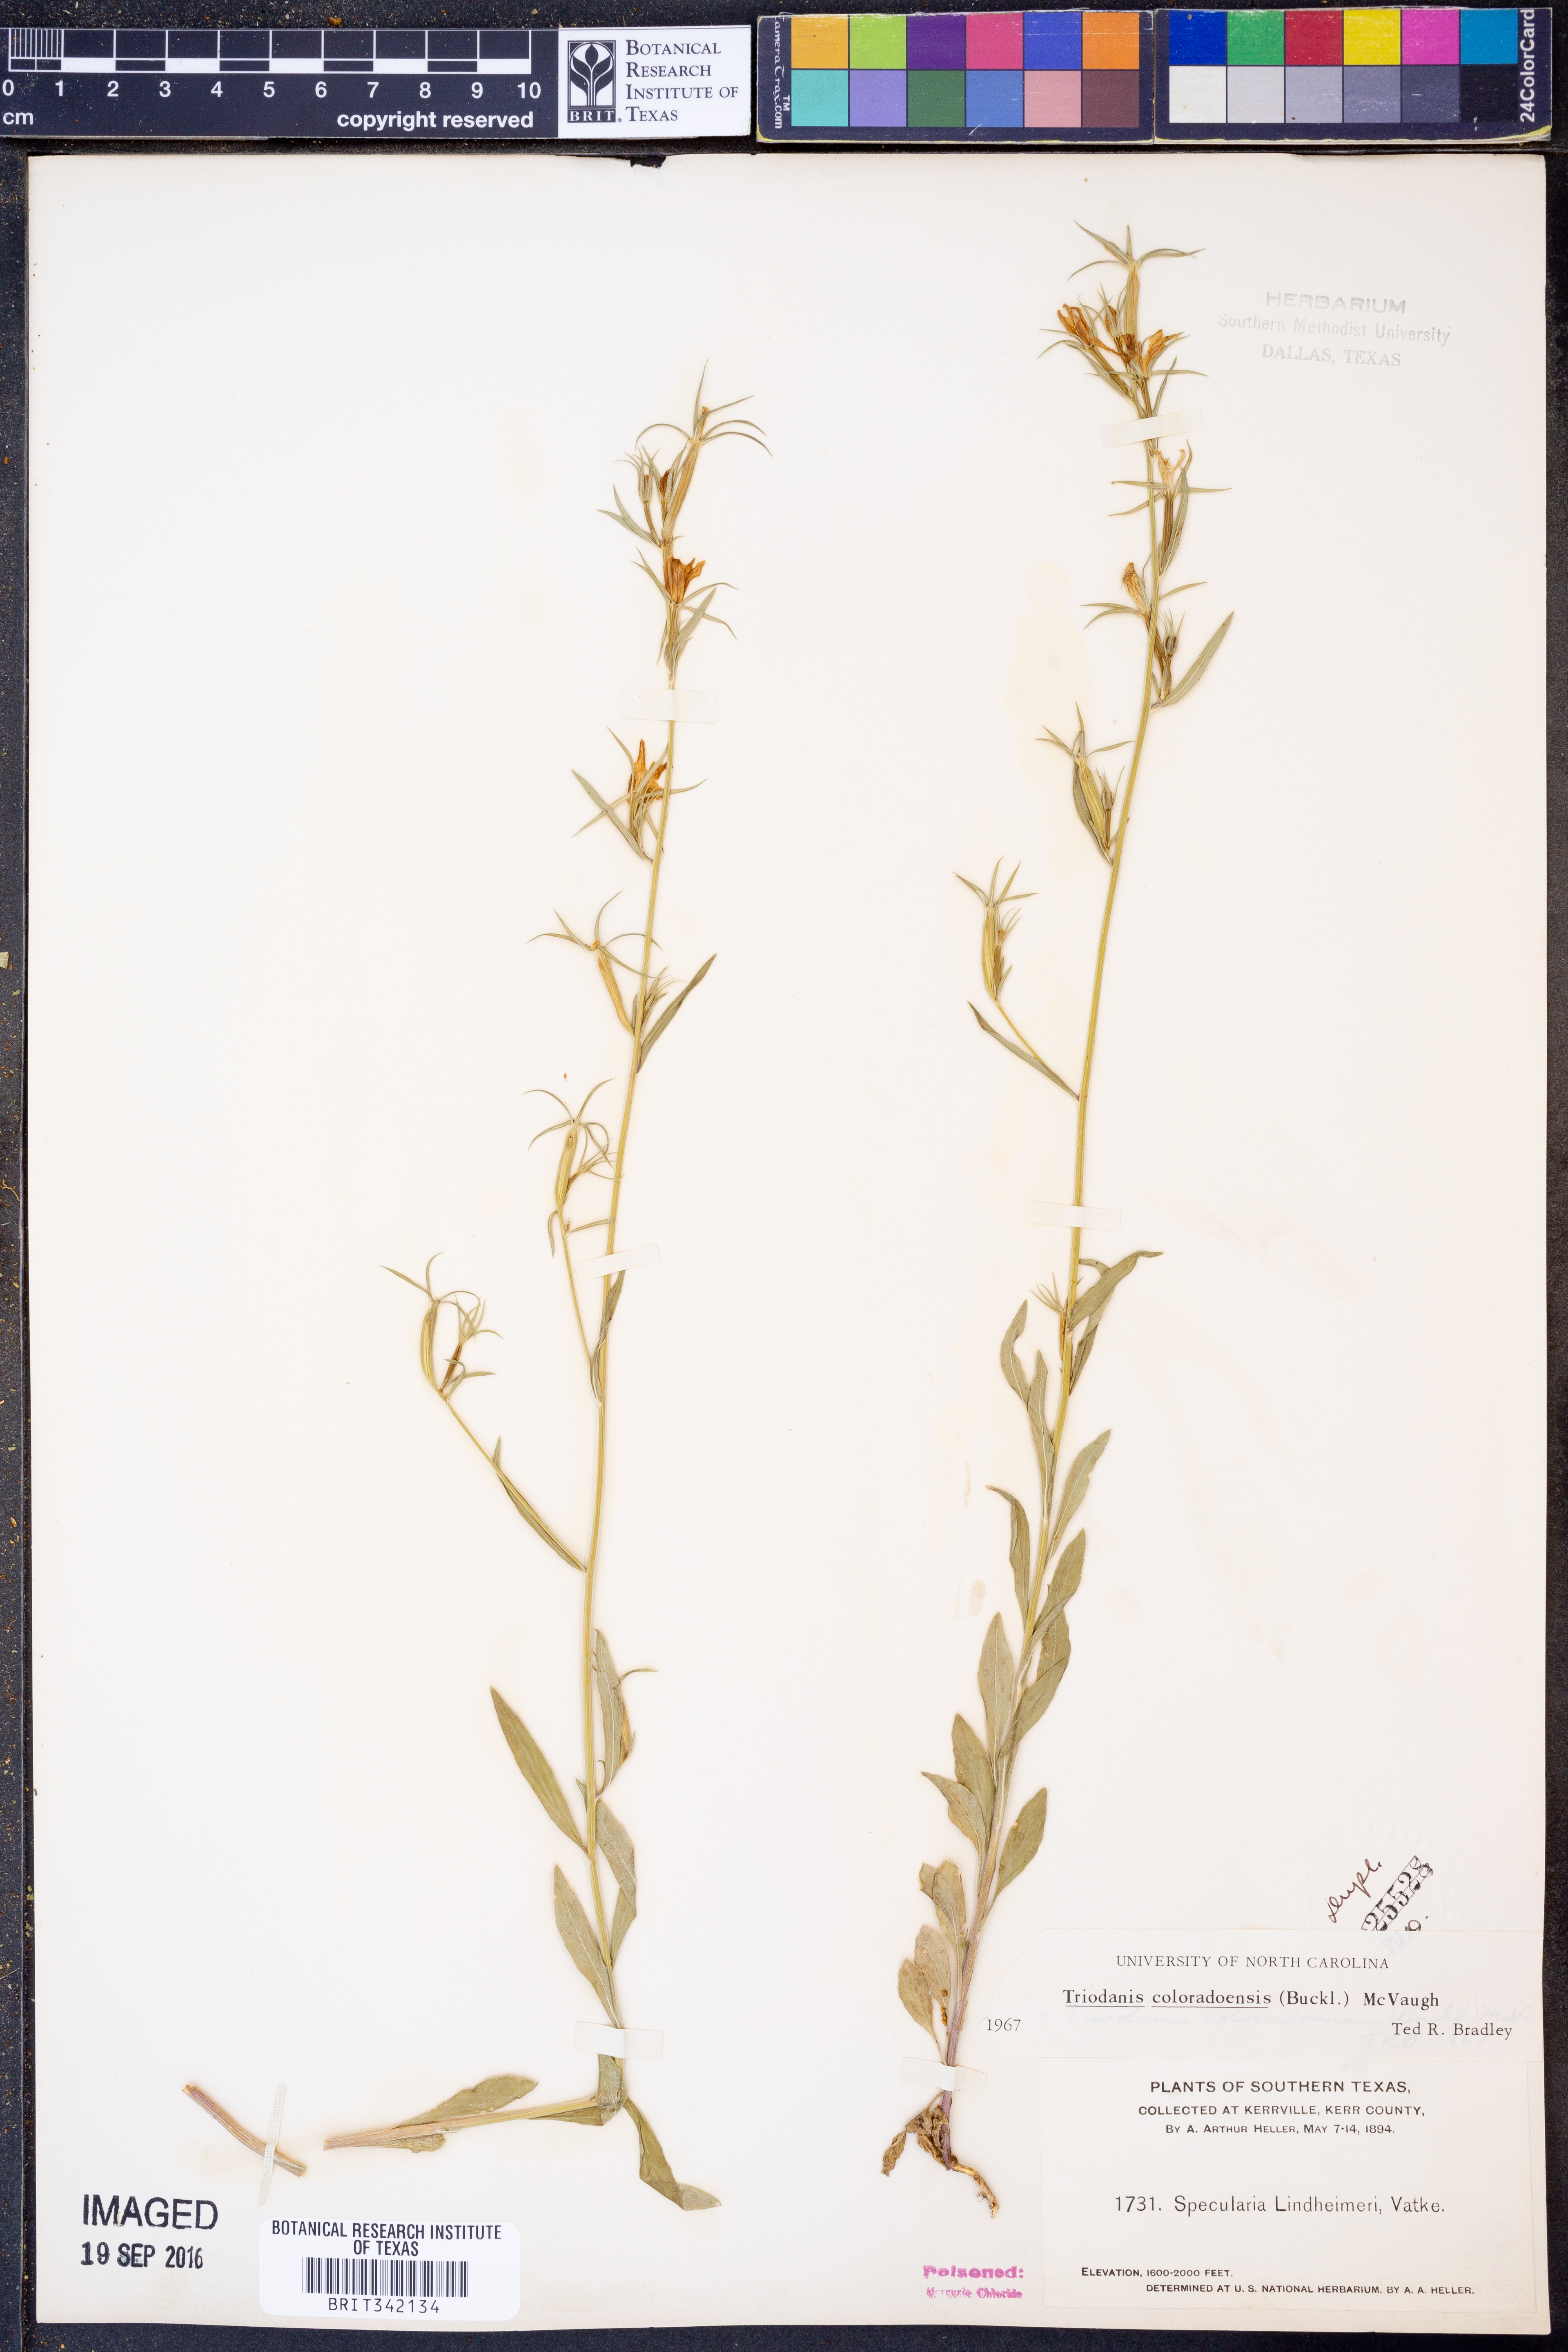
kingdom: Plantae
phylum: Tracheophyta
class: Magnoliopsida
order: Asterales
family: Campanulaceae
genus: Triodanis
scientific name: Triodanis coloradoensis
